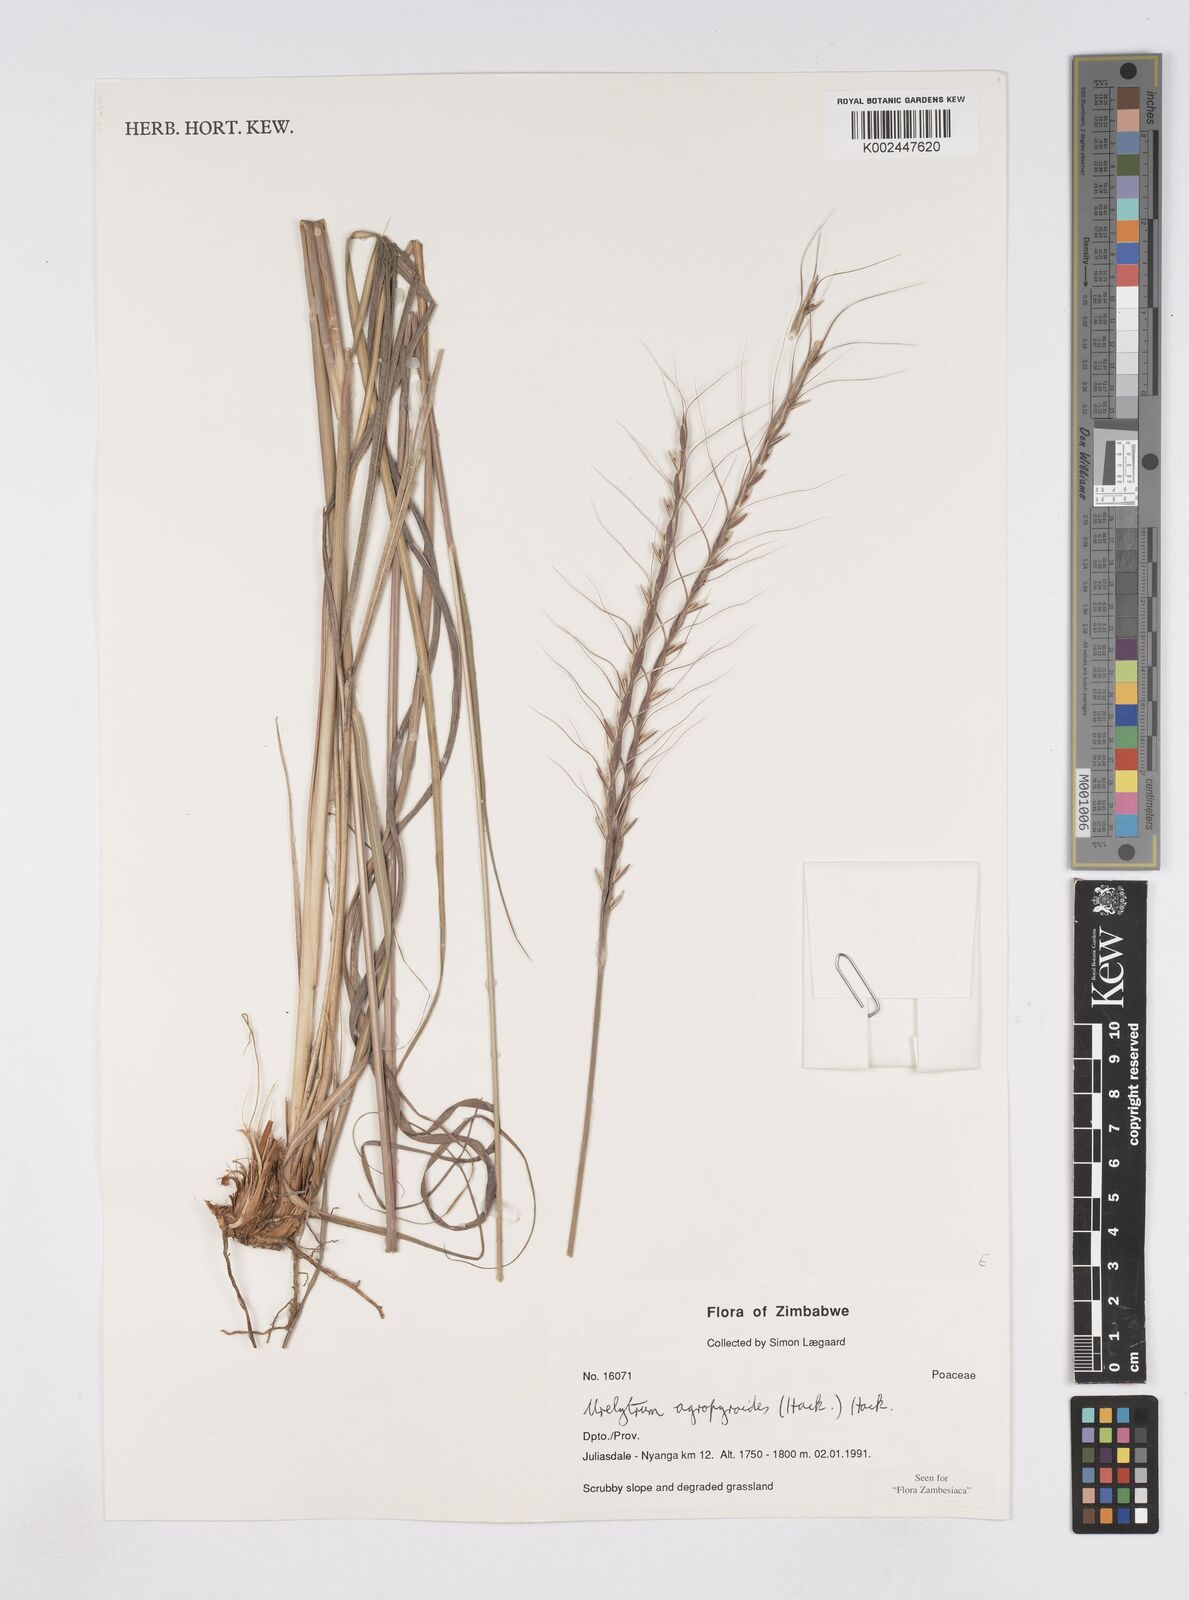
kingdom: Plantae
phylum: Tracheophyta
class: Liliopsida
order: Poales
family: Poaceae
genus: Urelytrum
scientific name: Urelytrum agropyroides
